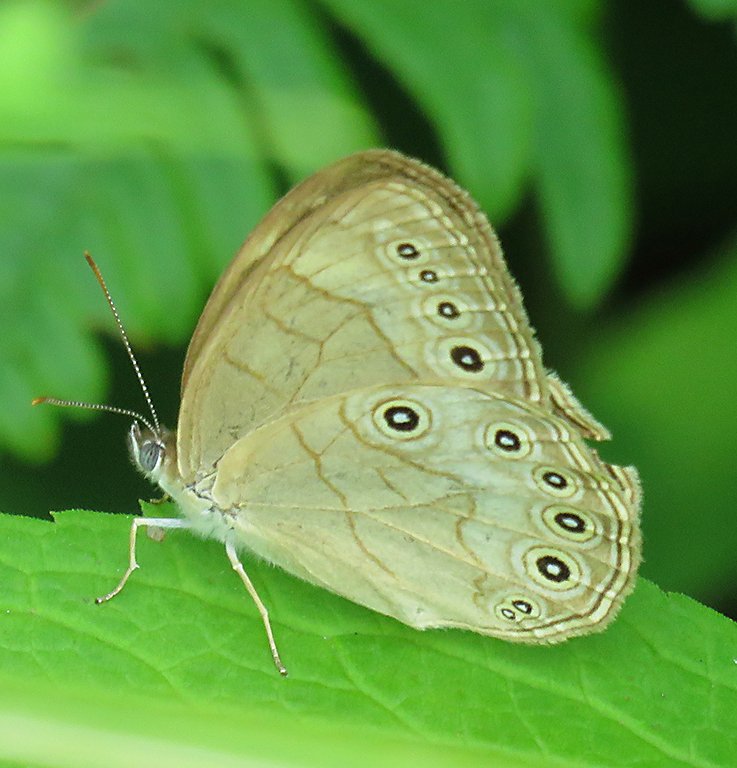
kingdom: Animalia
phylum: Arthropoda
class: Insecta
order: Lepidoptera
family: Nymphalidae
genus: Lethe
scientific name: Lethe eurydice
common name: Appalachian Eyed Brown
